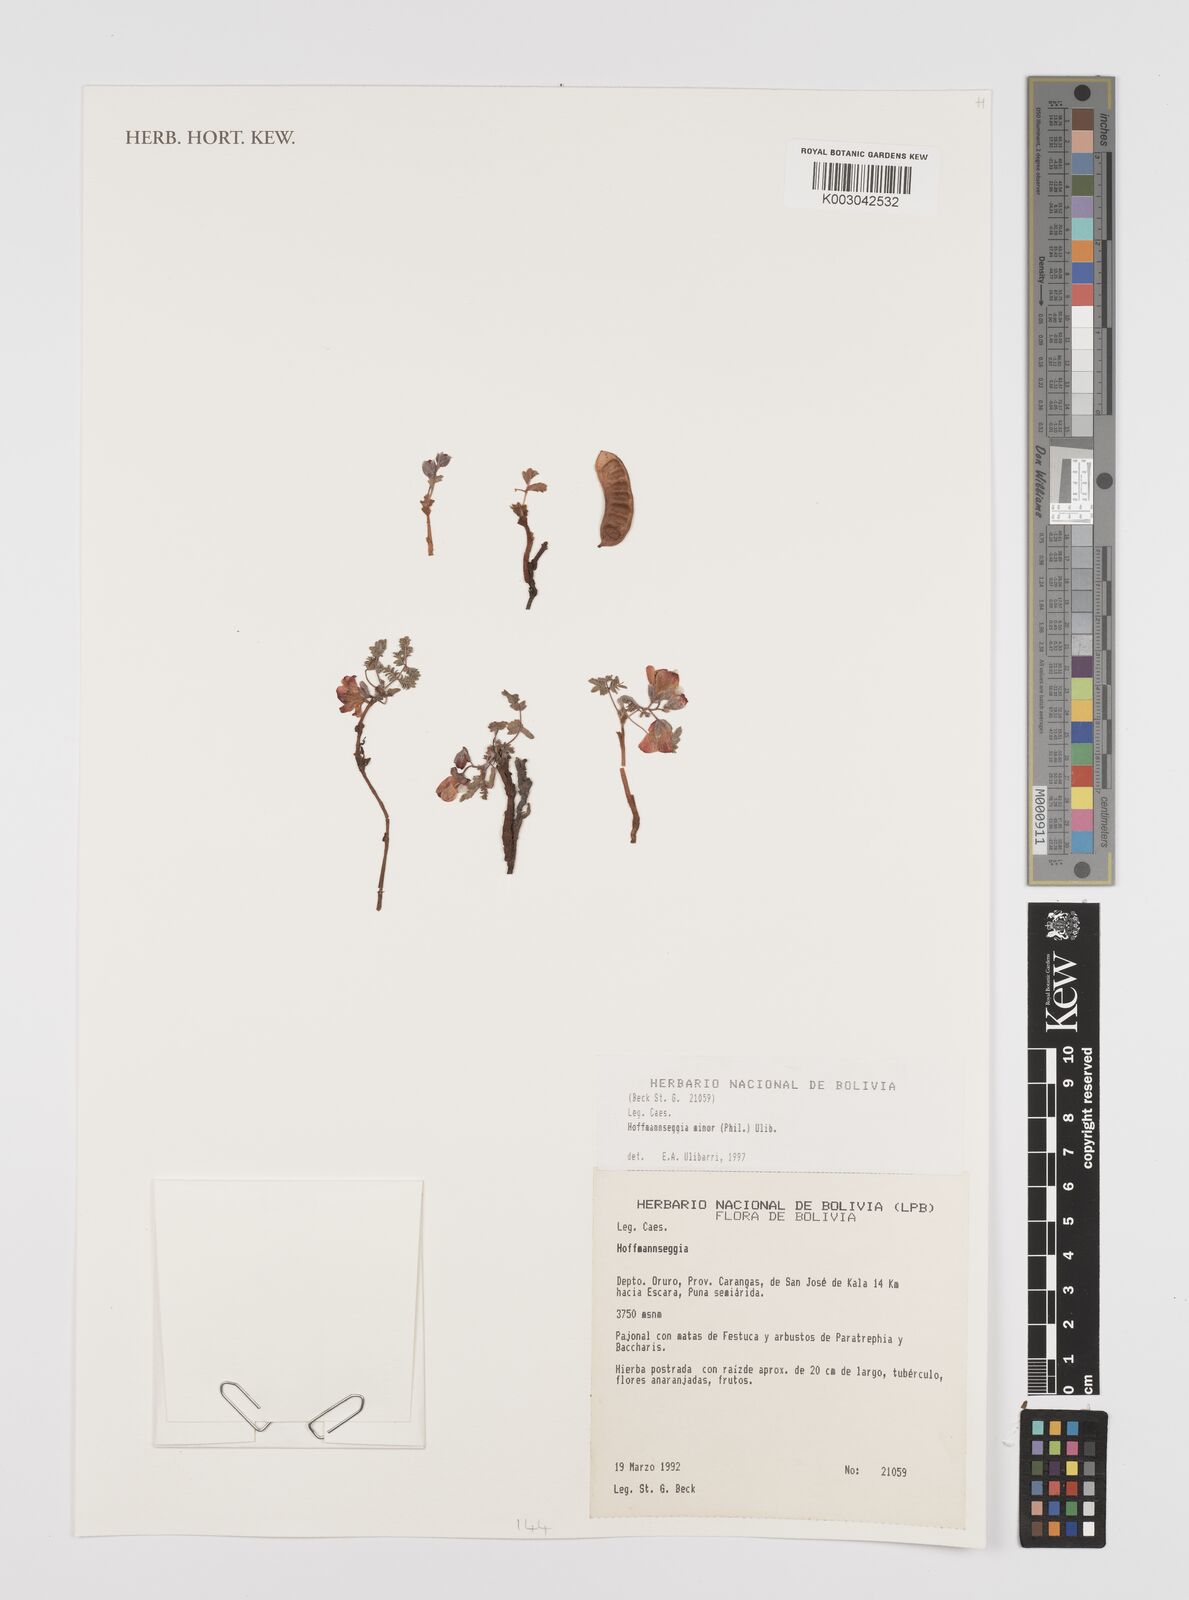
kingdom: Plantae
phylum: Tracheophyta
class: Magnoliopsida
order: Fabales
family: Fabaceae
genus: Hoffmannseggia
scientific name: Hoffmannseggia minor
